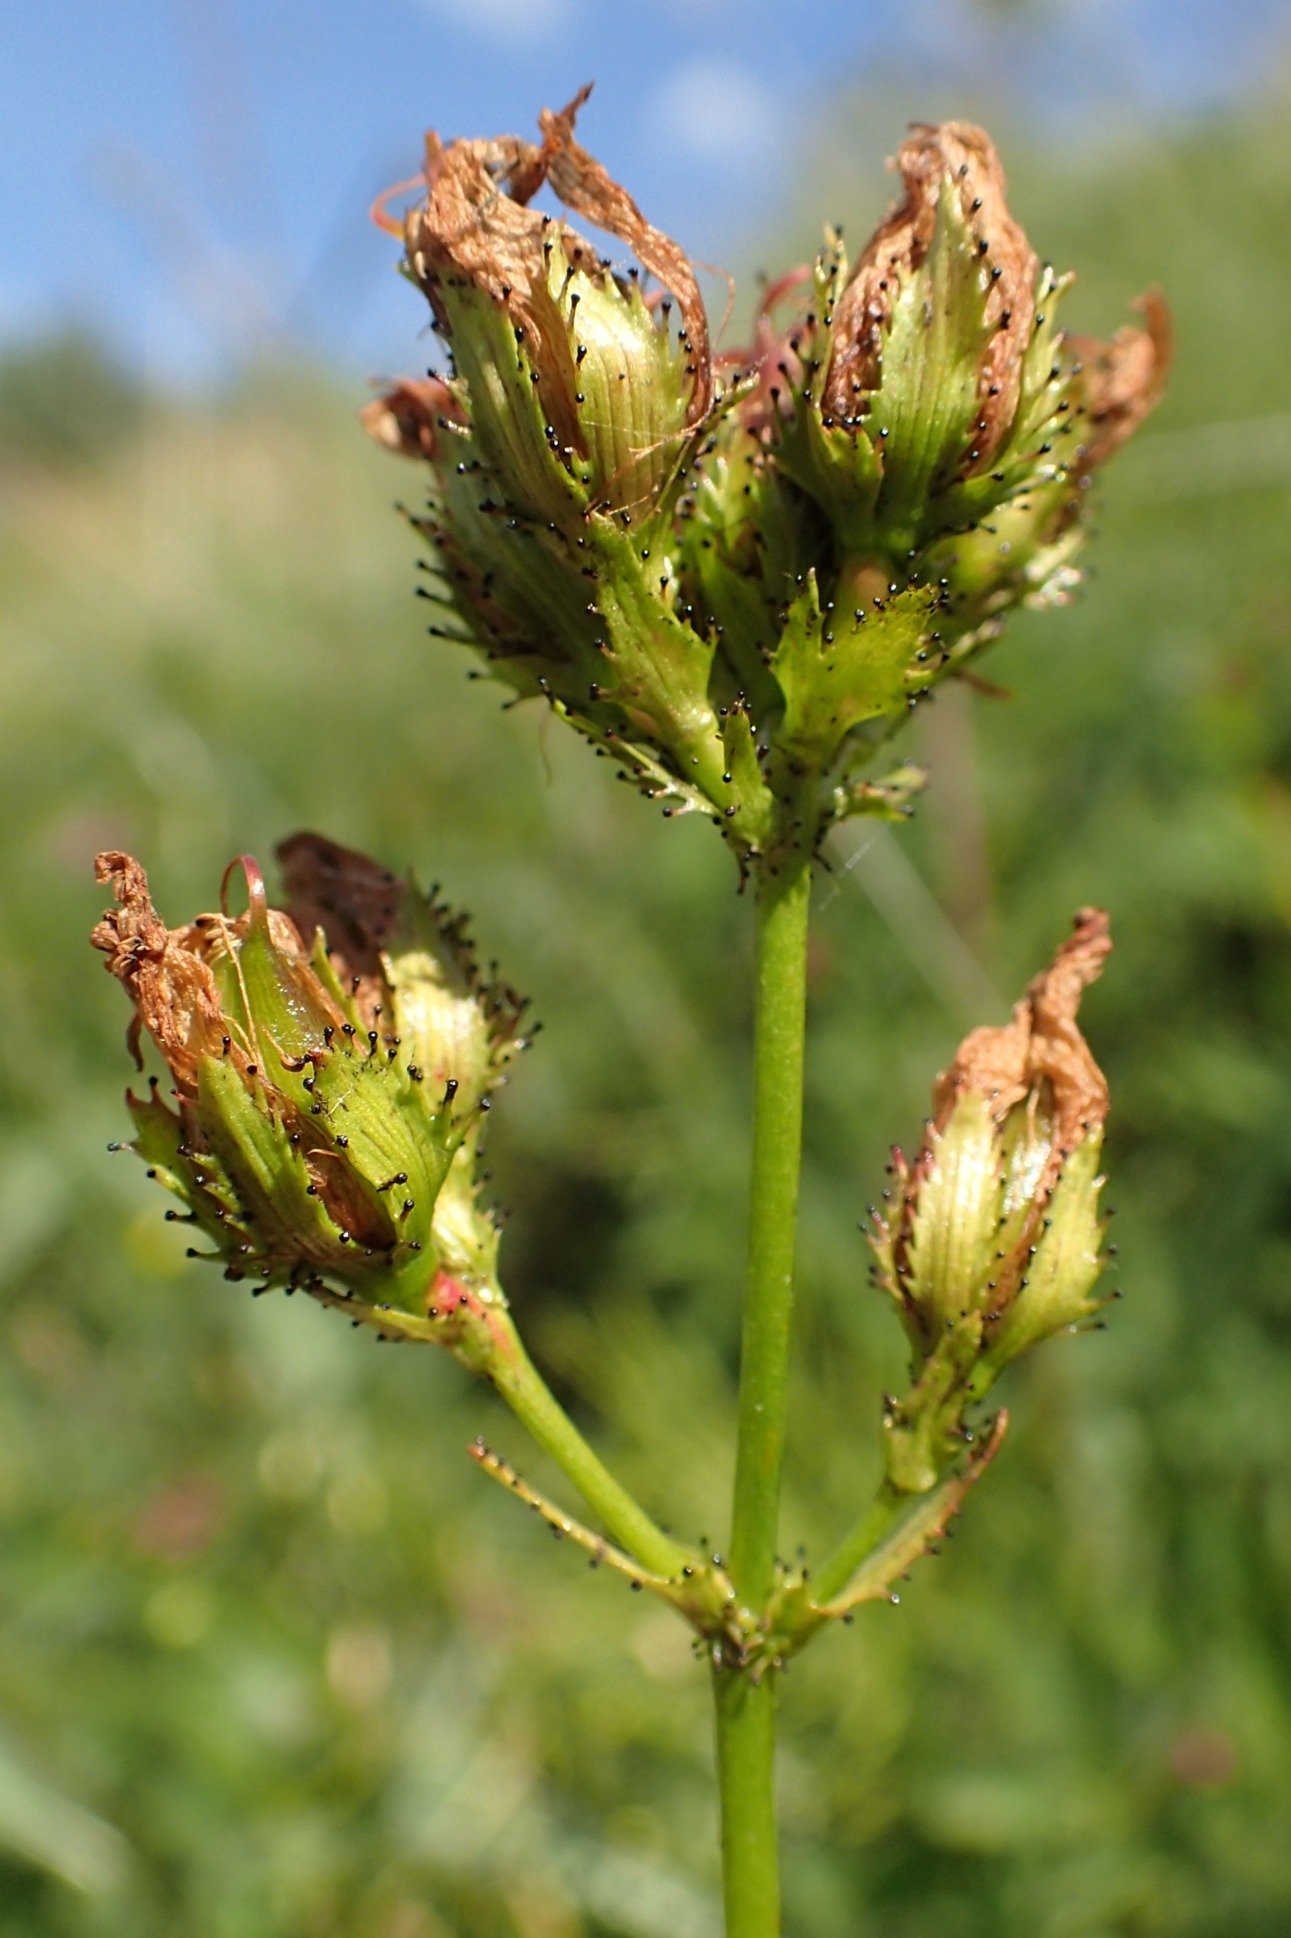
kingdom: Plantae
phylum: Tracheophyta
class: Magnoliopsida
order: Malpighiales
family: Hypericaceae
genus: Hypericum
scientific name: Hypericum montanum
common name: Bjerg-perikon
